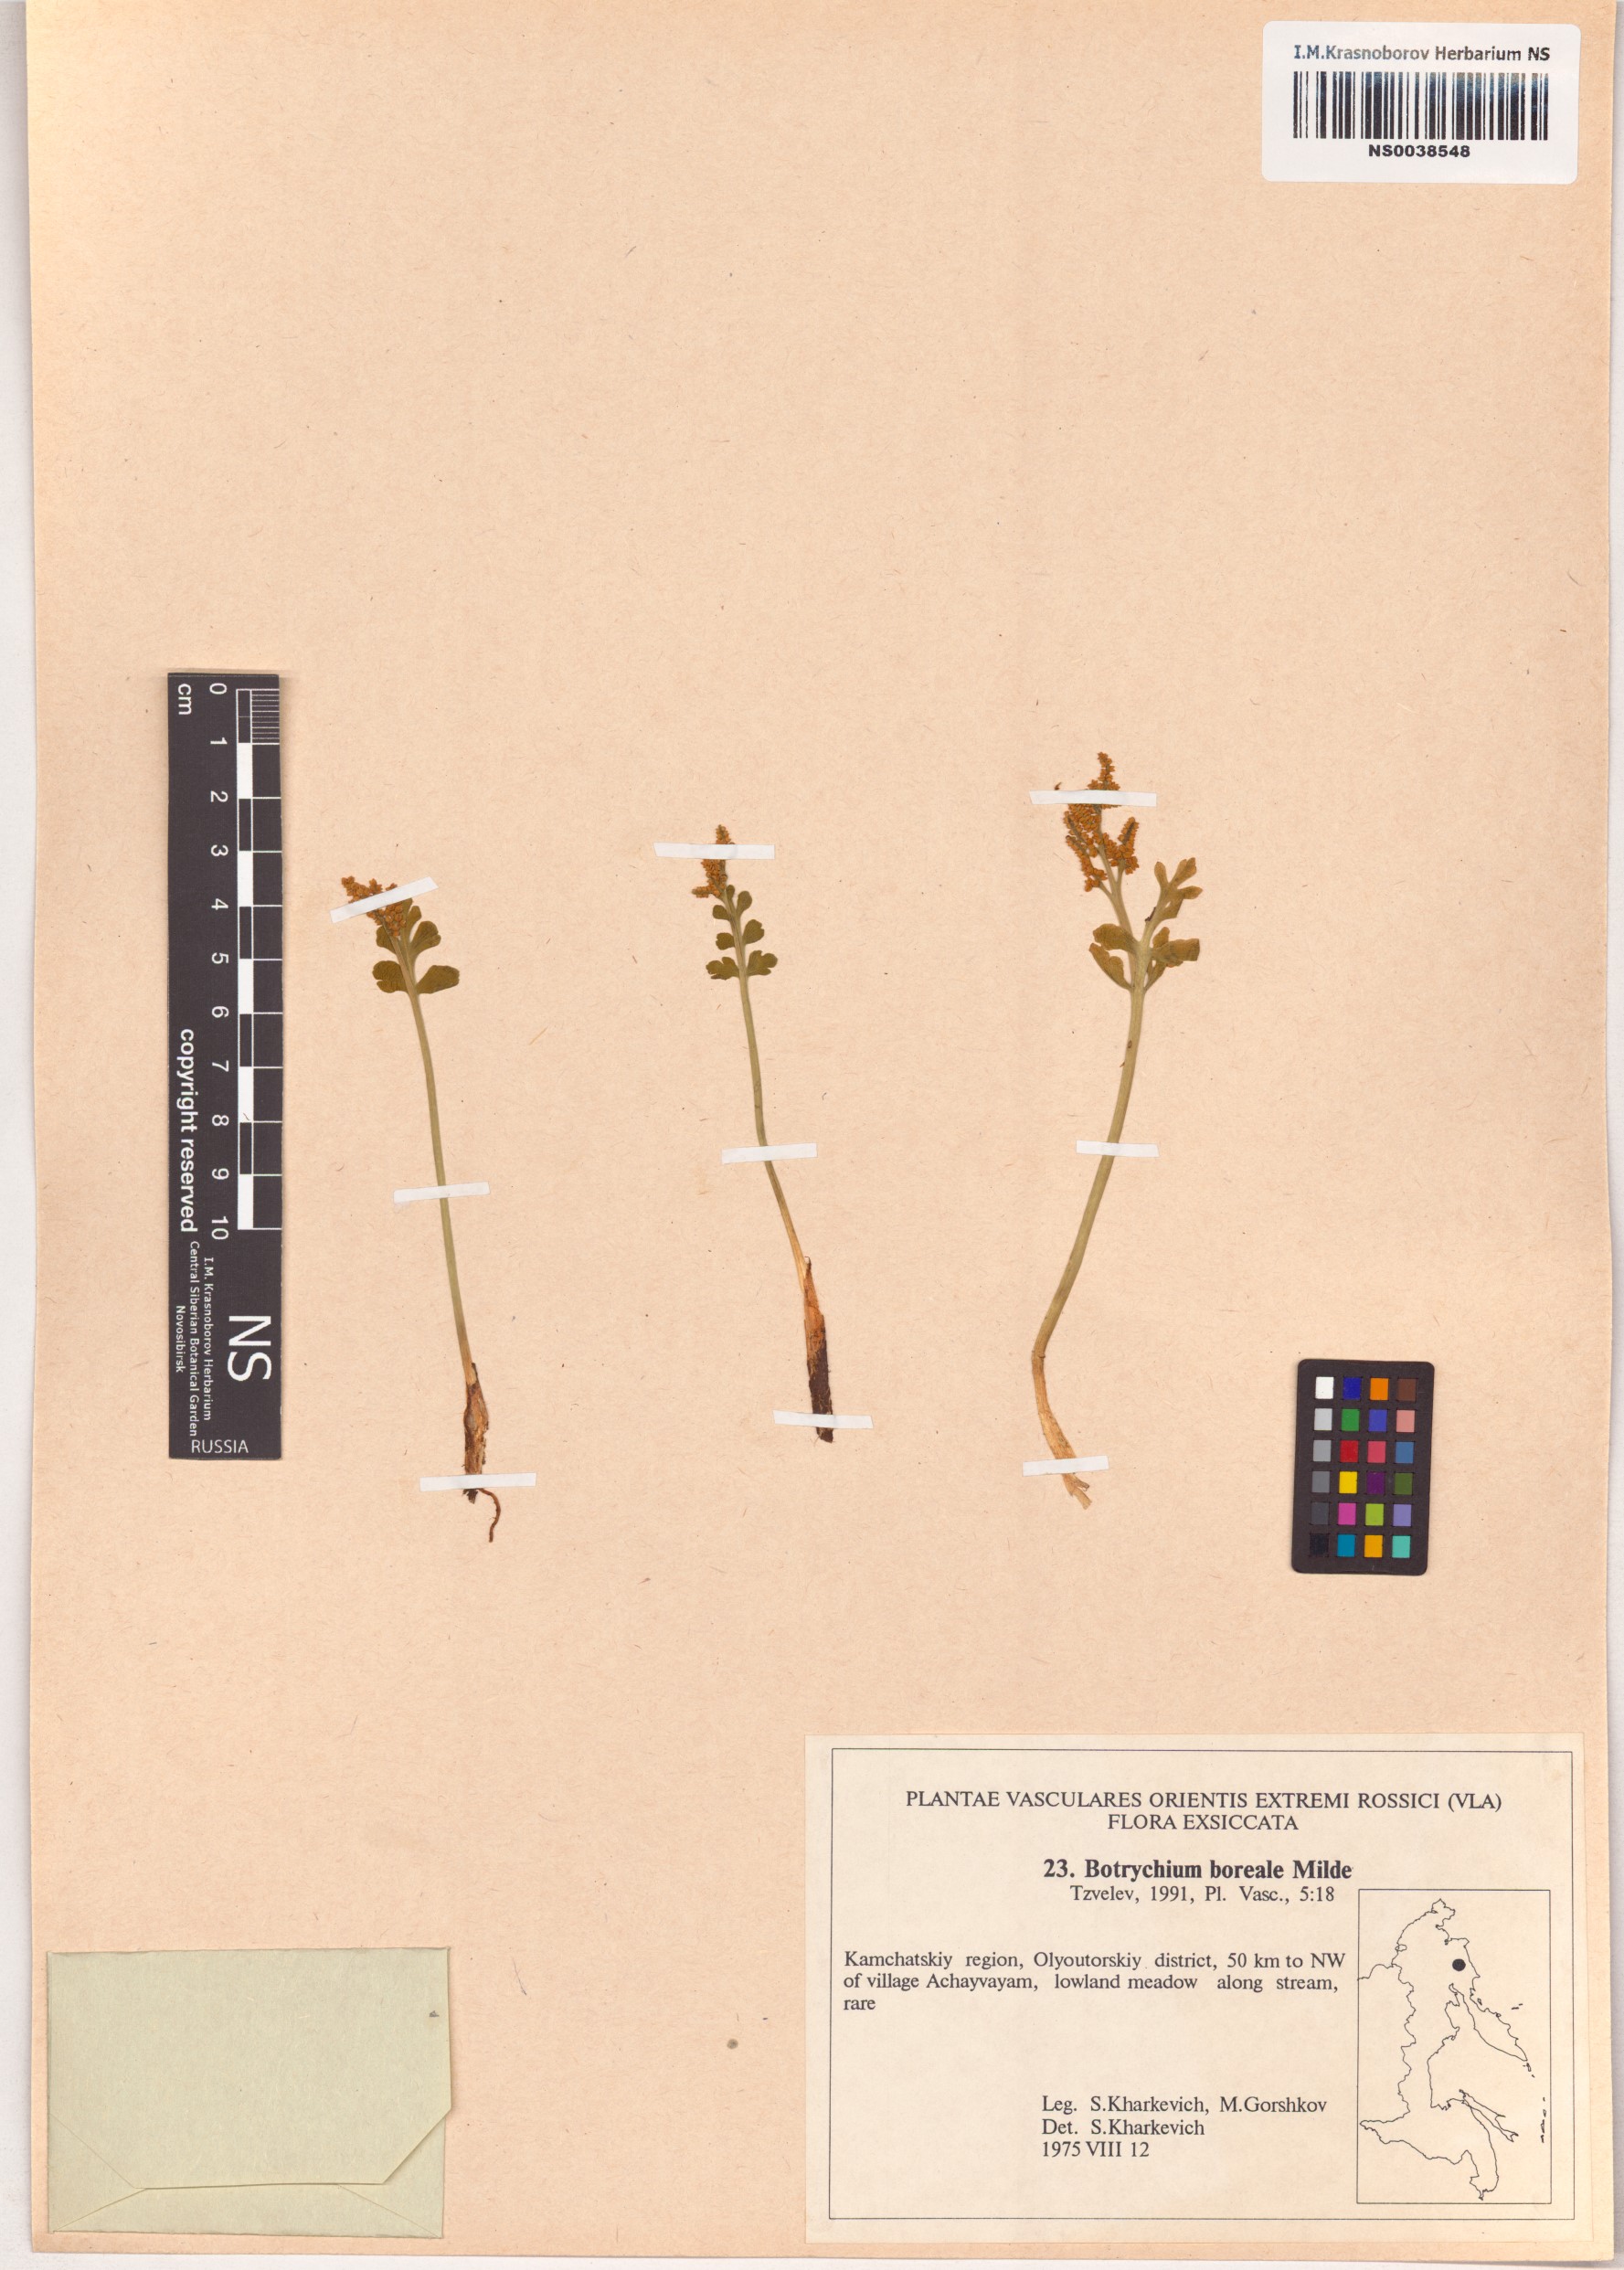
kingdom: Plantae
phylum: Tracheophyta
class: Polypodiopsida
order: Ophioglossales
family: Ophioglossaceae
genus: Botrychium
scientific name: Botrychium boreale
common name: Boreal moonwort
